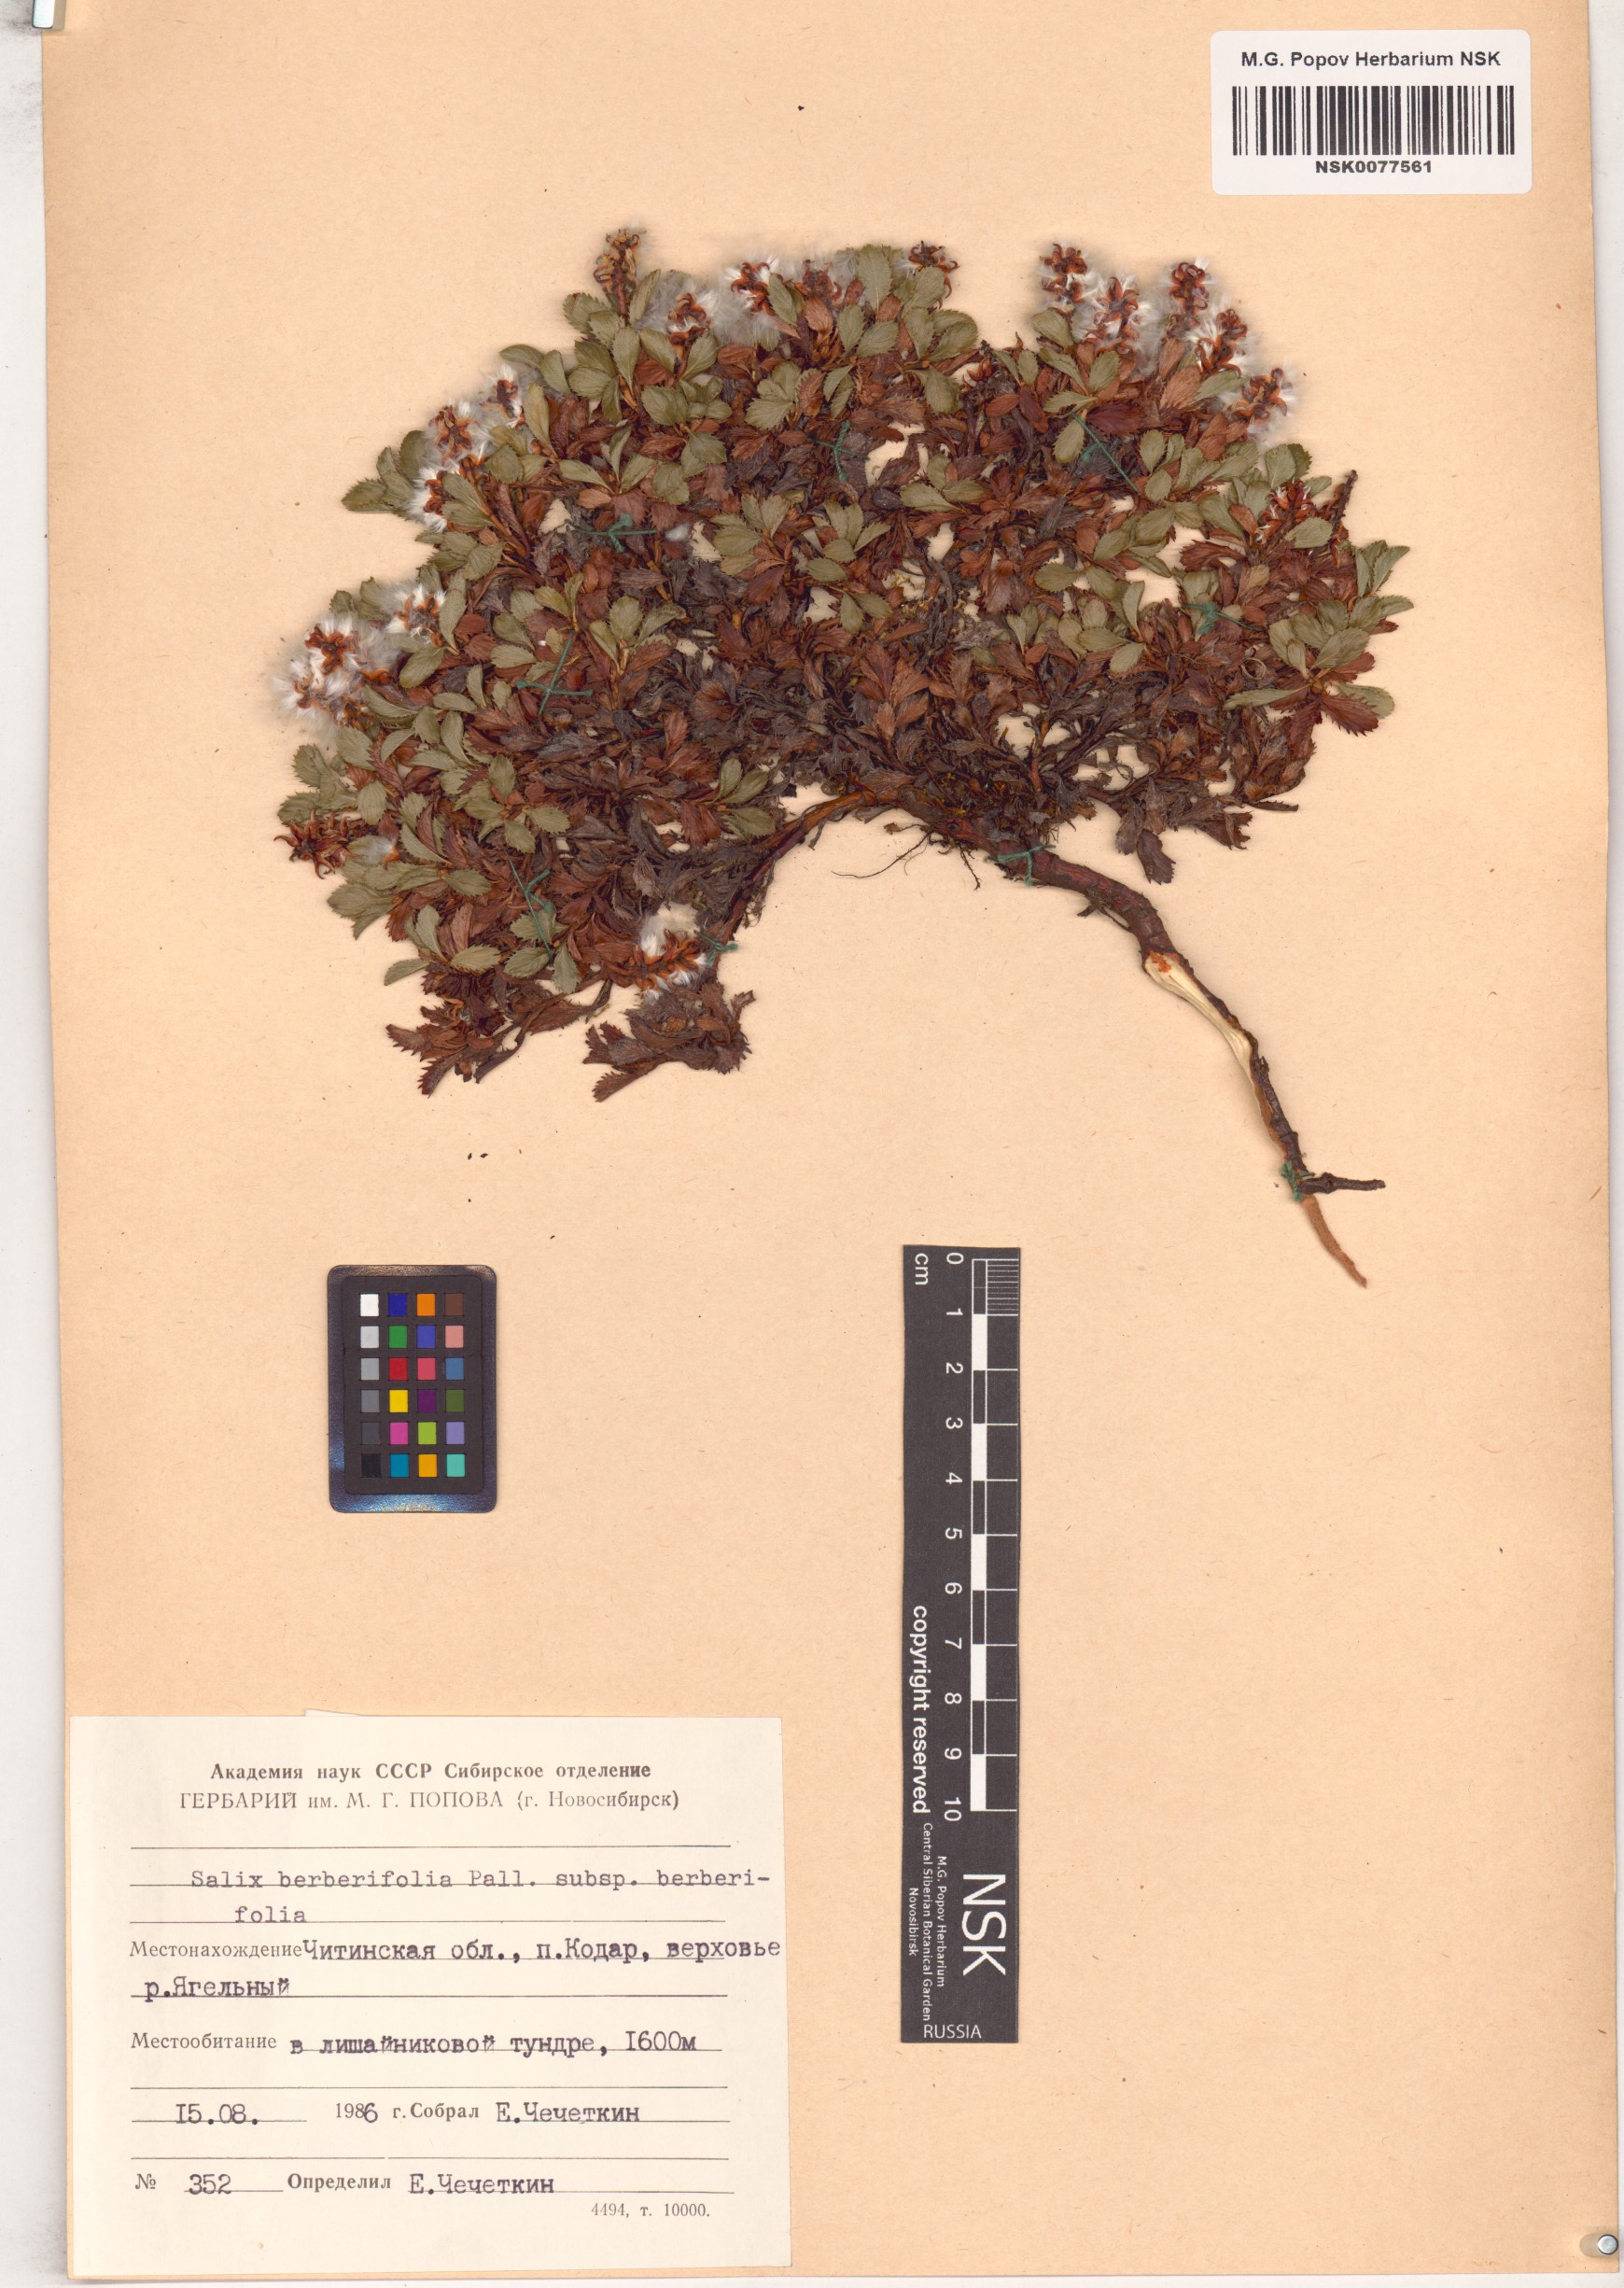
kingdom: Plantae
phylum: Tracheophyta
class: Magnoliopsida
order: Malpighiales
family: Salicaceae
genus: Salix
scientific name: Salix berberifolia
